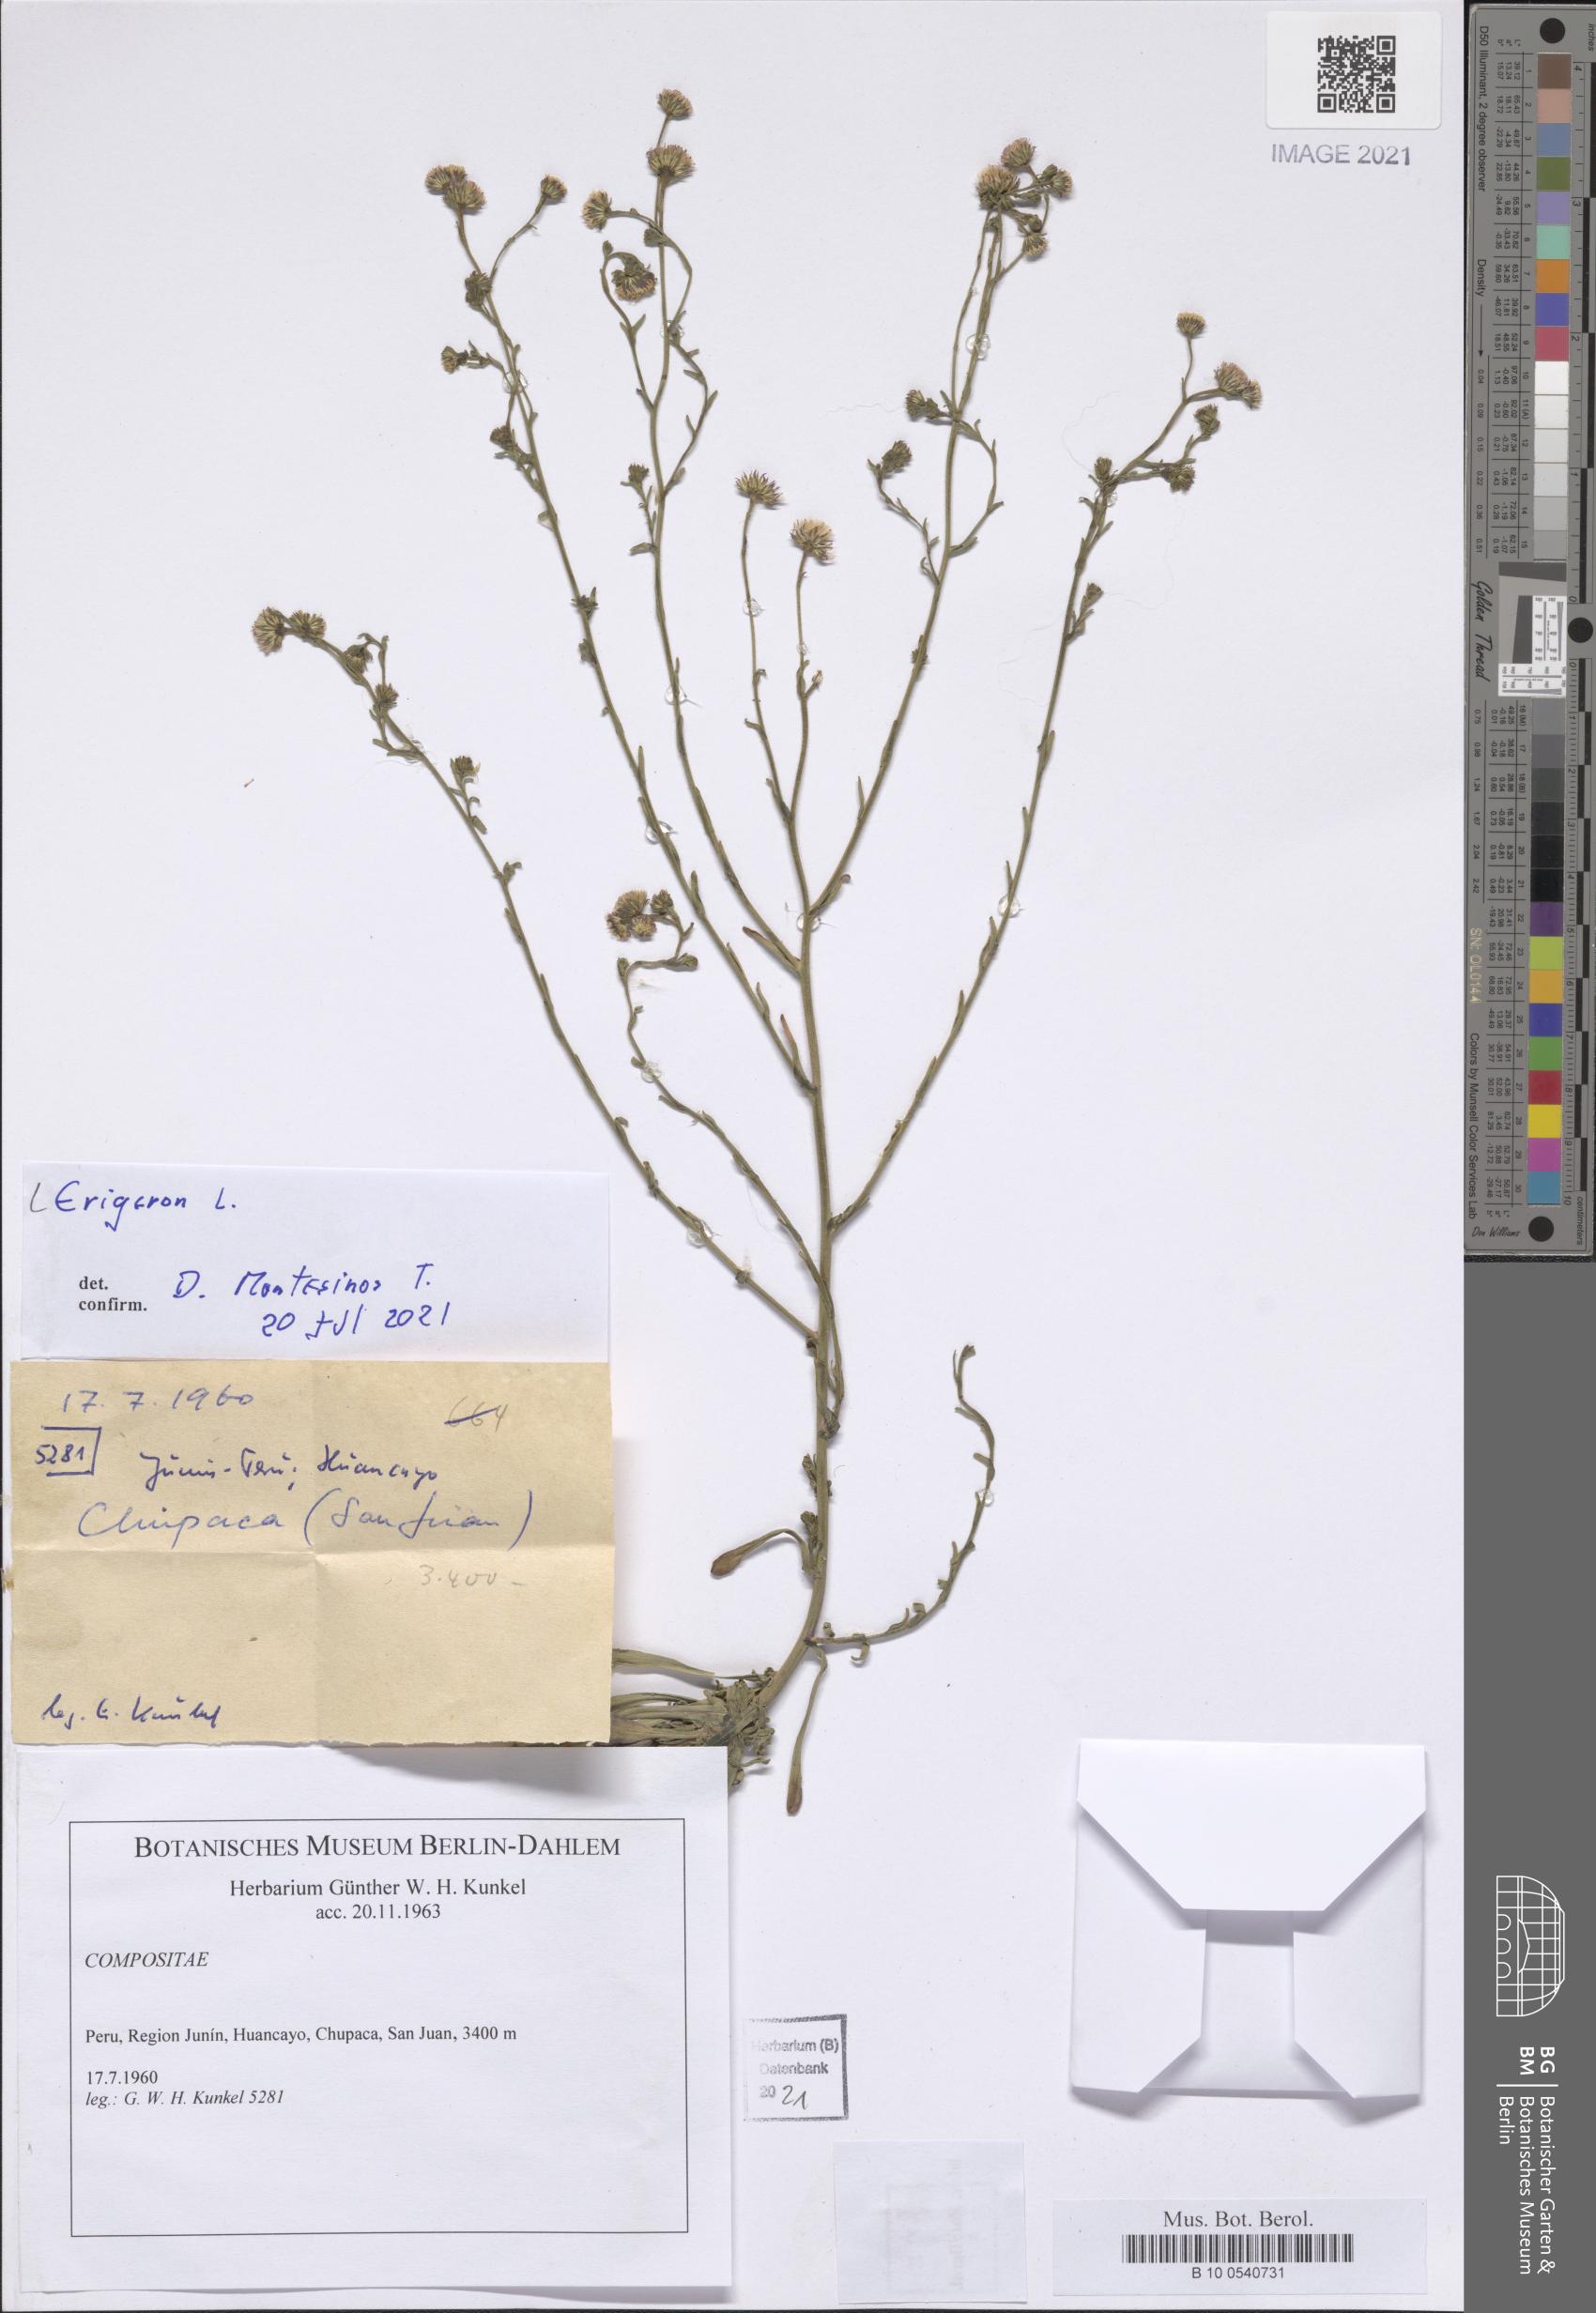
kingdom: Plantae
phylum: Tracheophyta
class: Magnoliopsida
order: Asterales
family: Asteraceae
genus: Erigeron
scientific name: Erigeron
